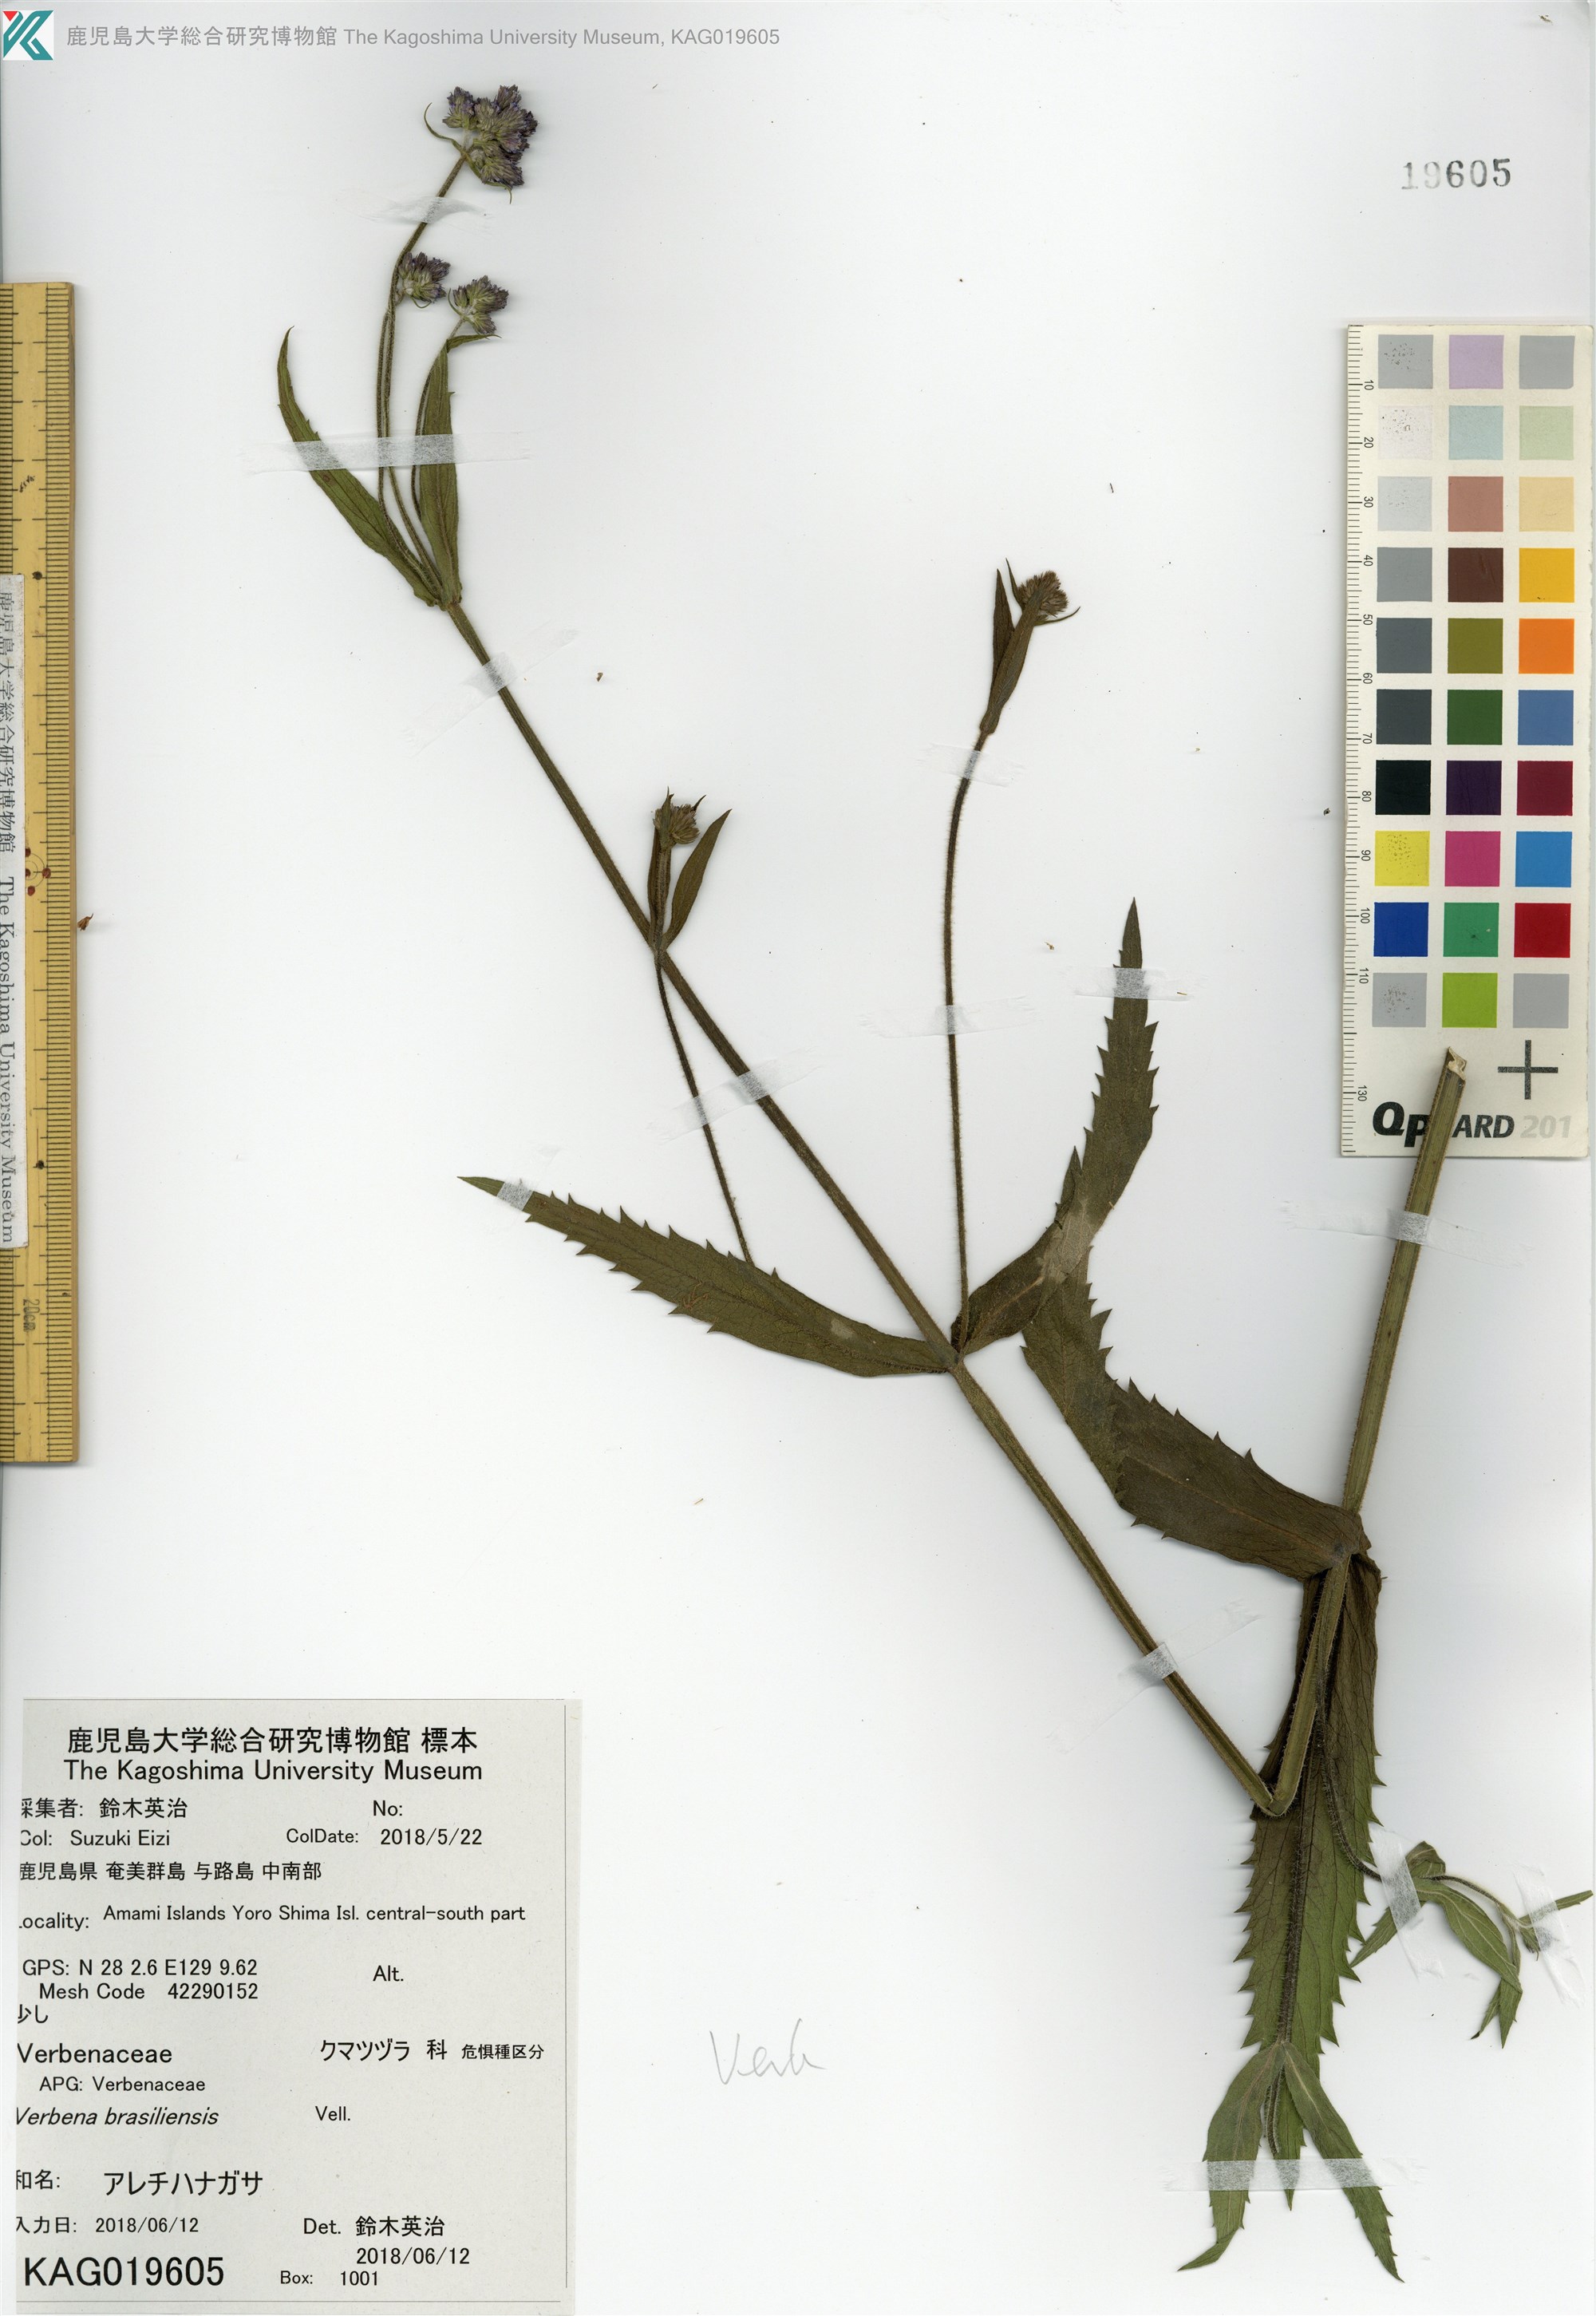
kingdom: Plantae
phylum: Tracheophyta
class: Magnoliopsida
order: Lamiales
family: Verbenaceae
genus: Verbena
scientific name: Verbena incompta
